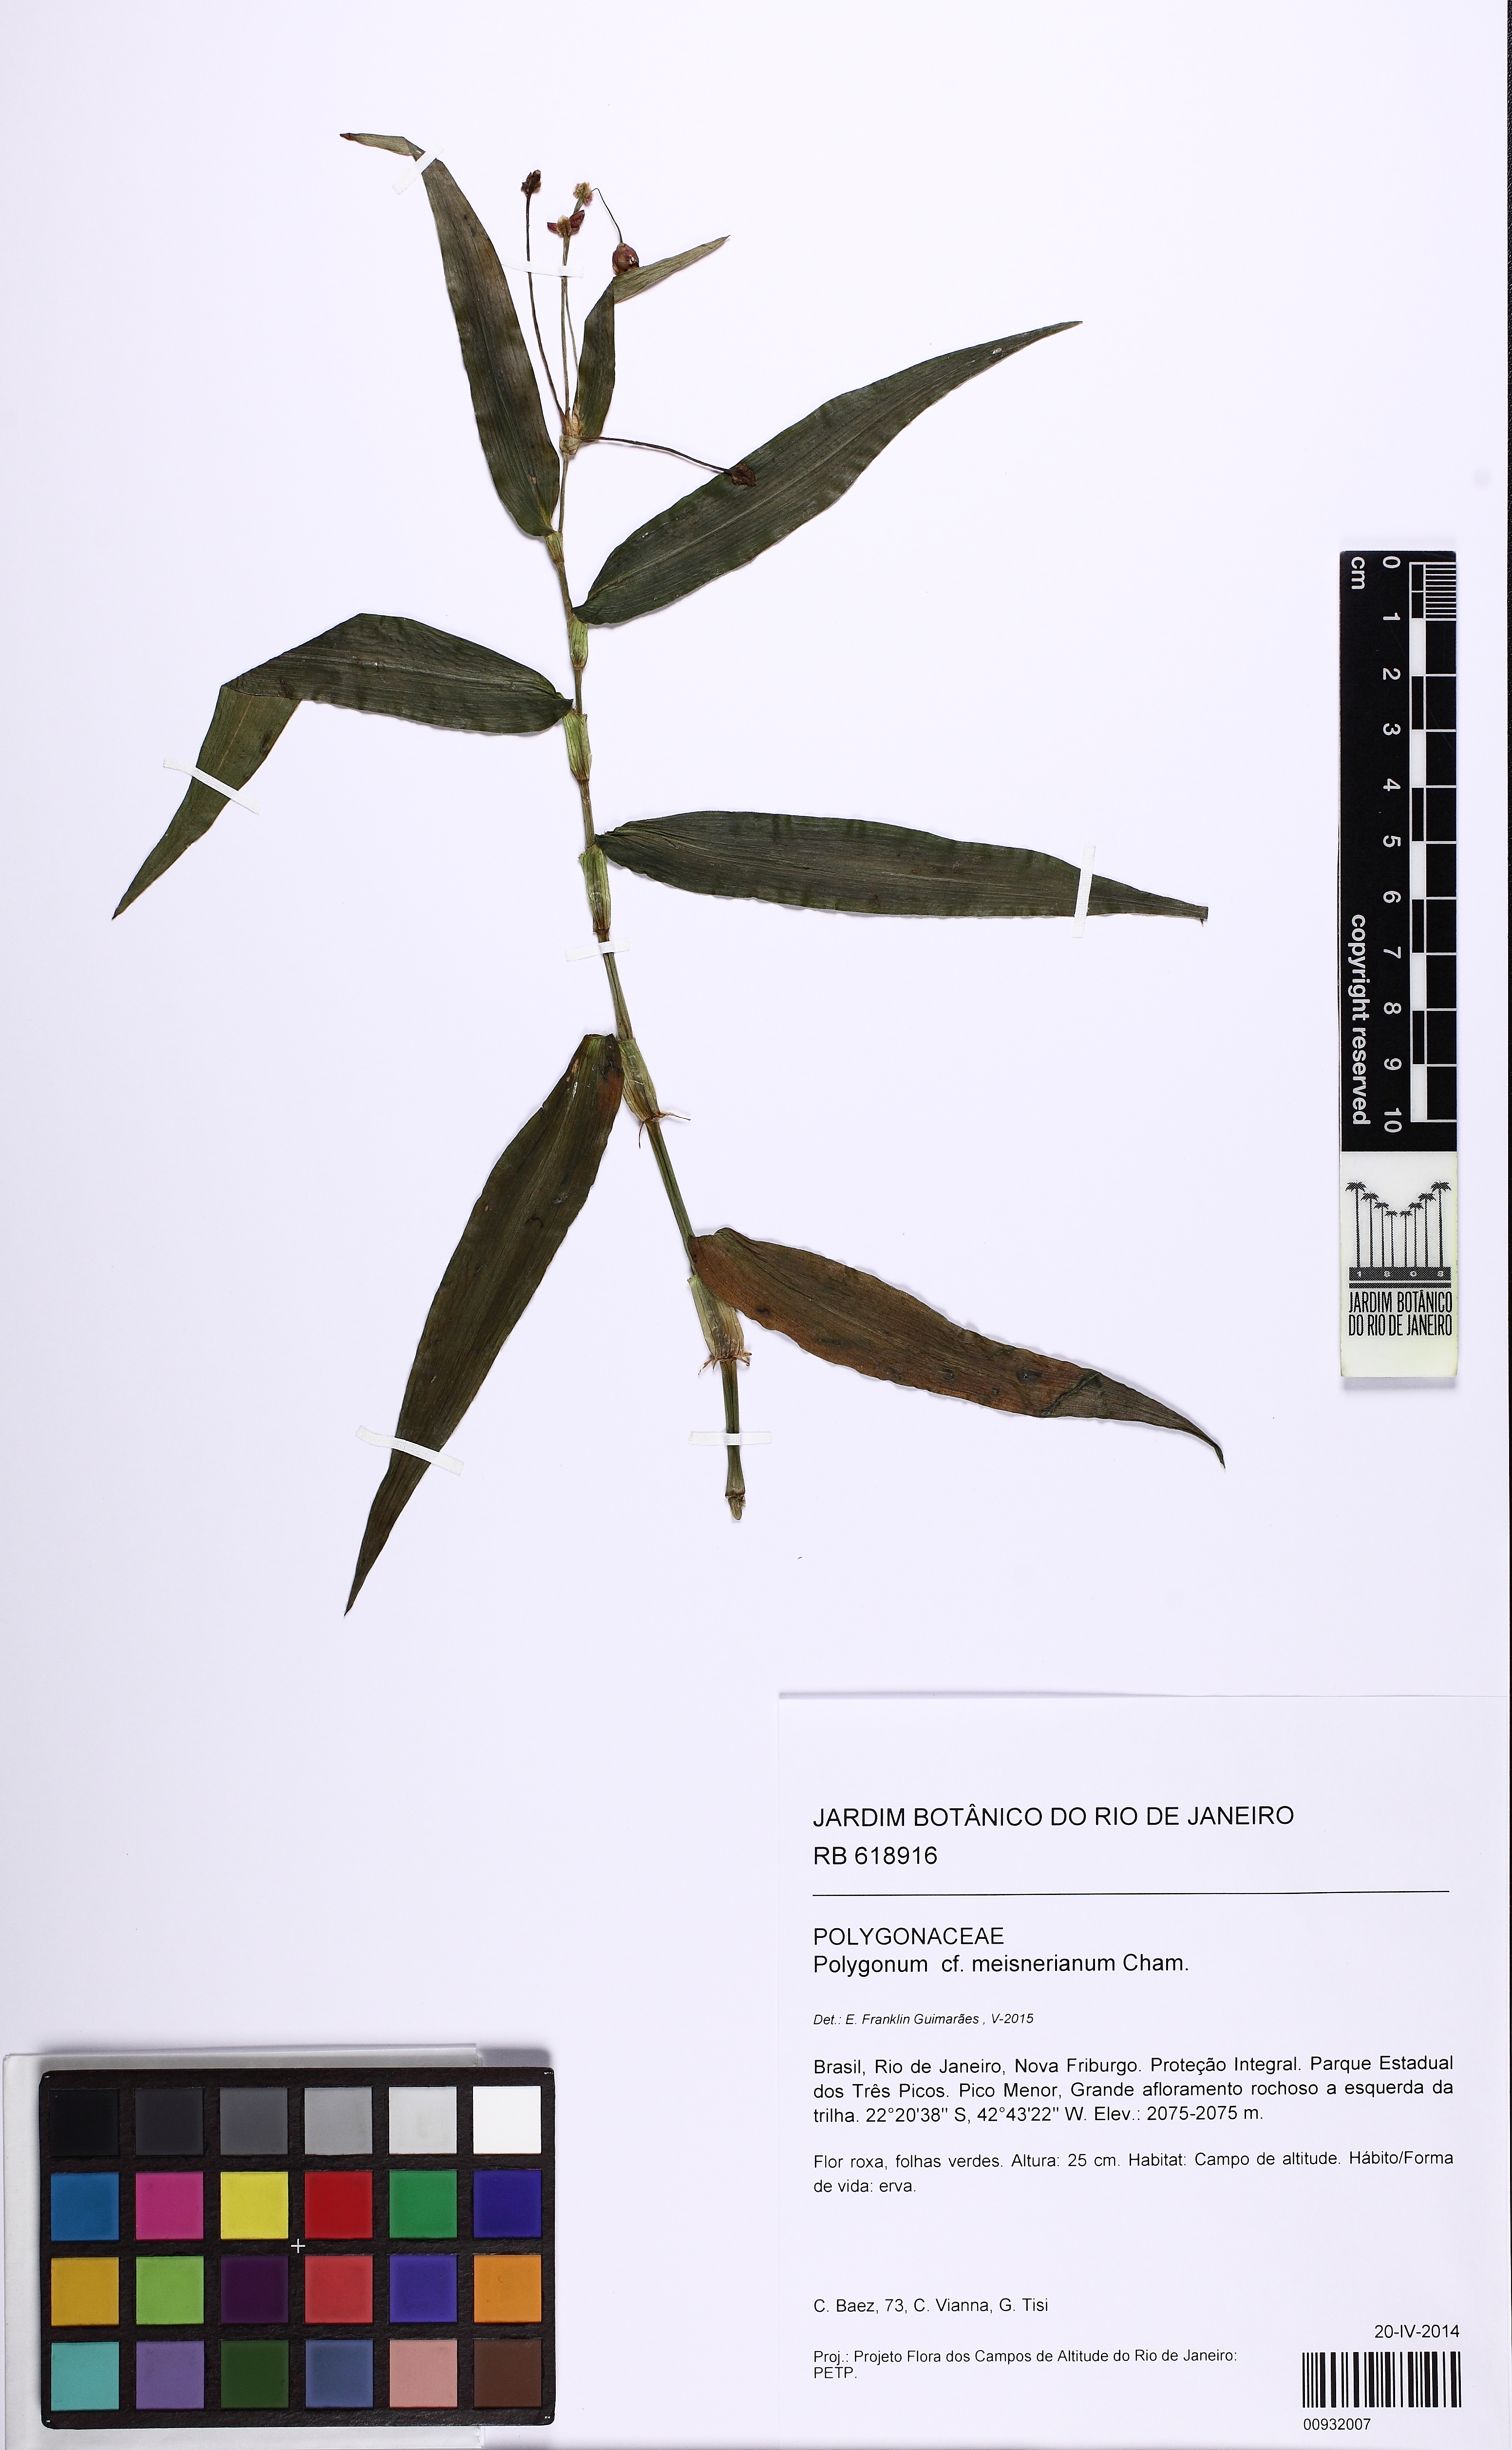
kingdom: Plantae
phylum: Tracheophyta
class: Magnoliopsida
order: Caryophyllales
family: Polygonaceae
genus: Persicaria
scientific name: Persicaria meisneriana
